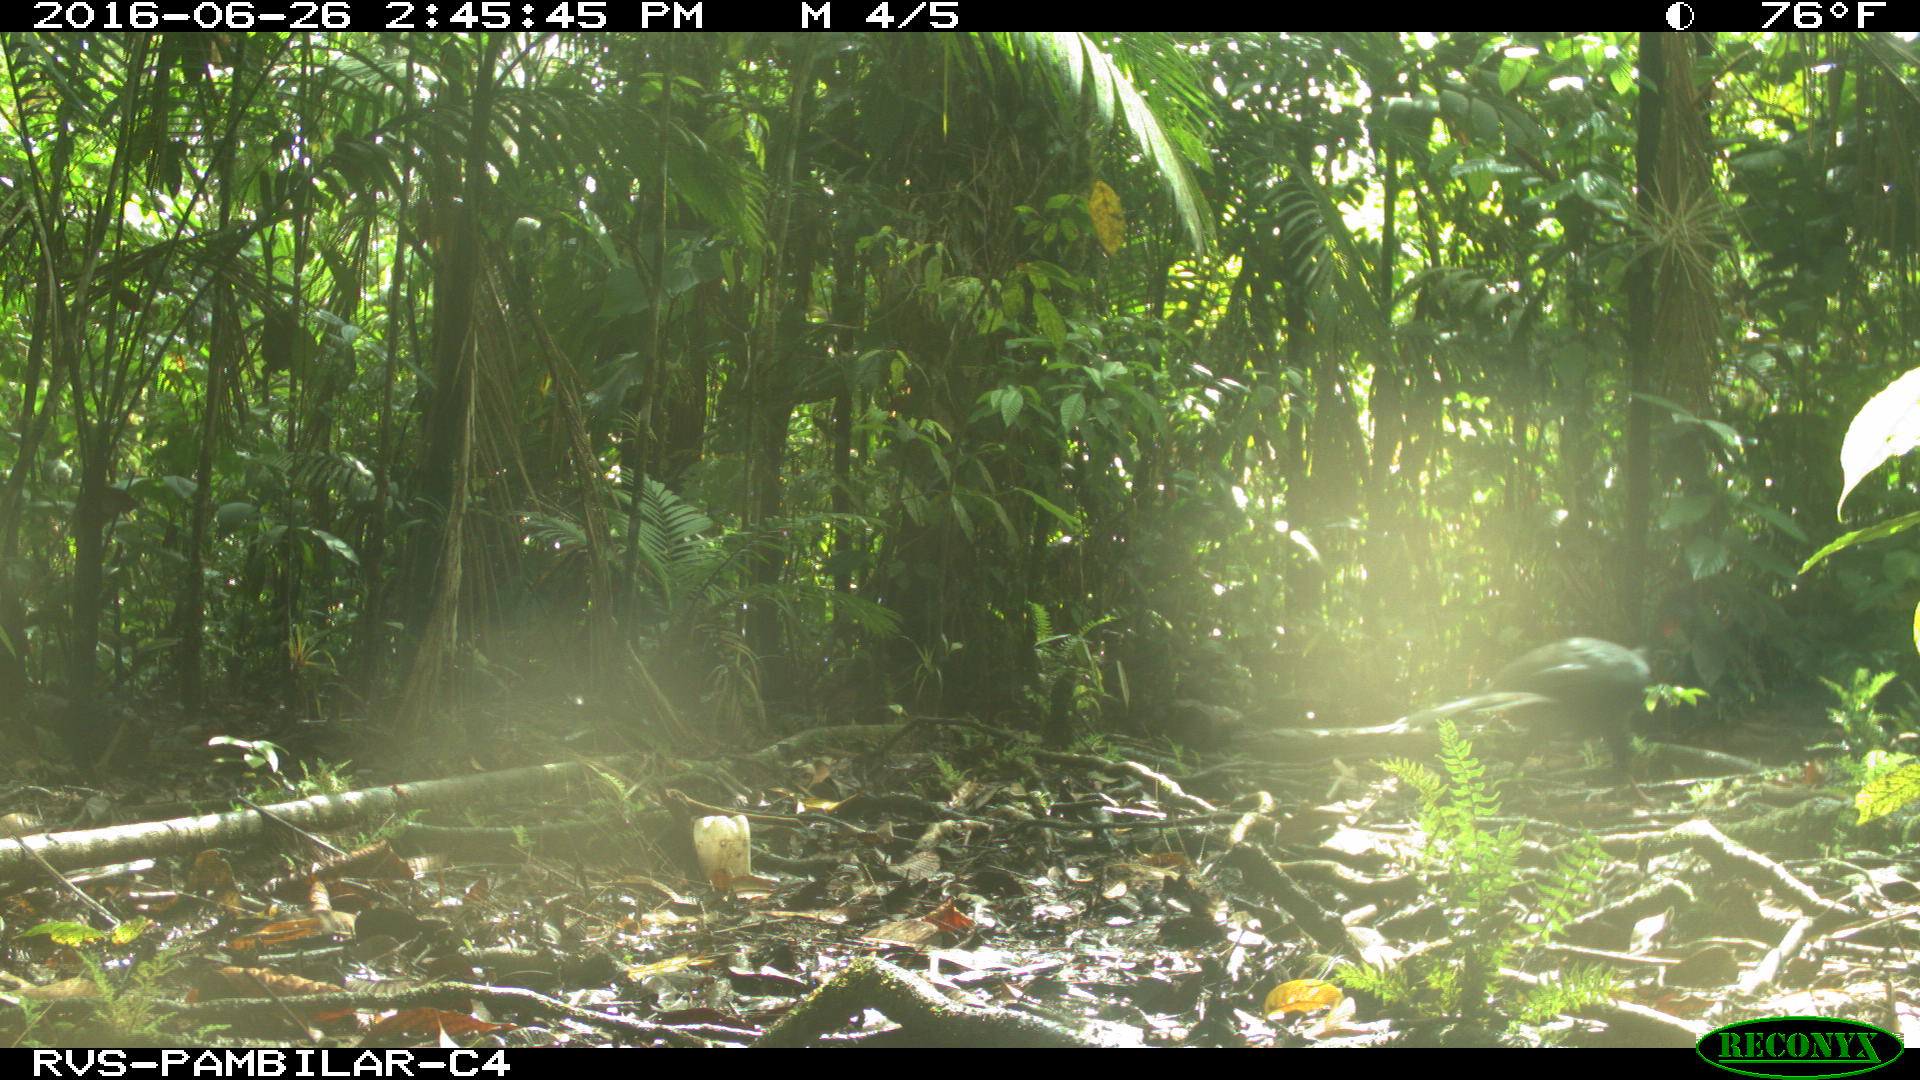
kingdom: Animalia
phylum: Chordata
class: Aves
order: Galliformes
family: Cracidae
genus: Penelope
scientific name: Penelope purpurascens
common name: Crested guan
